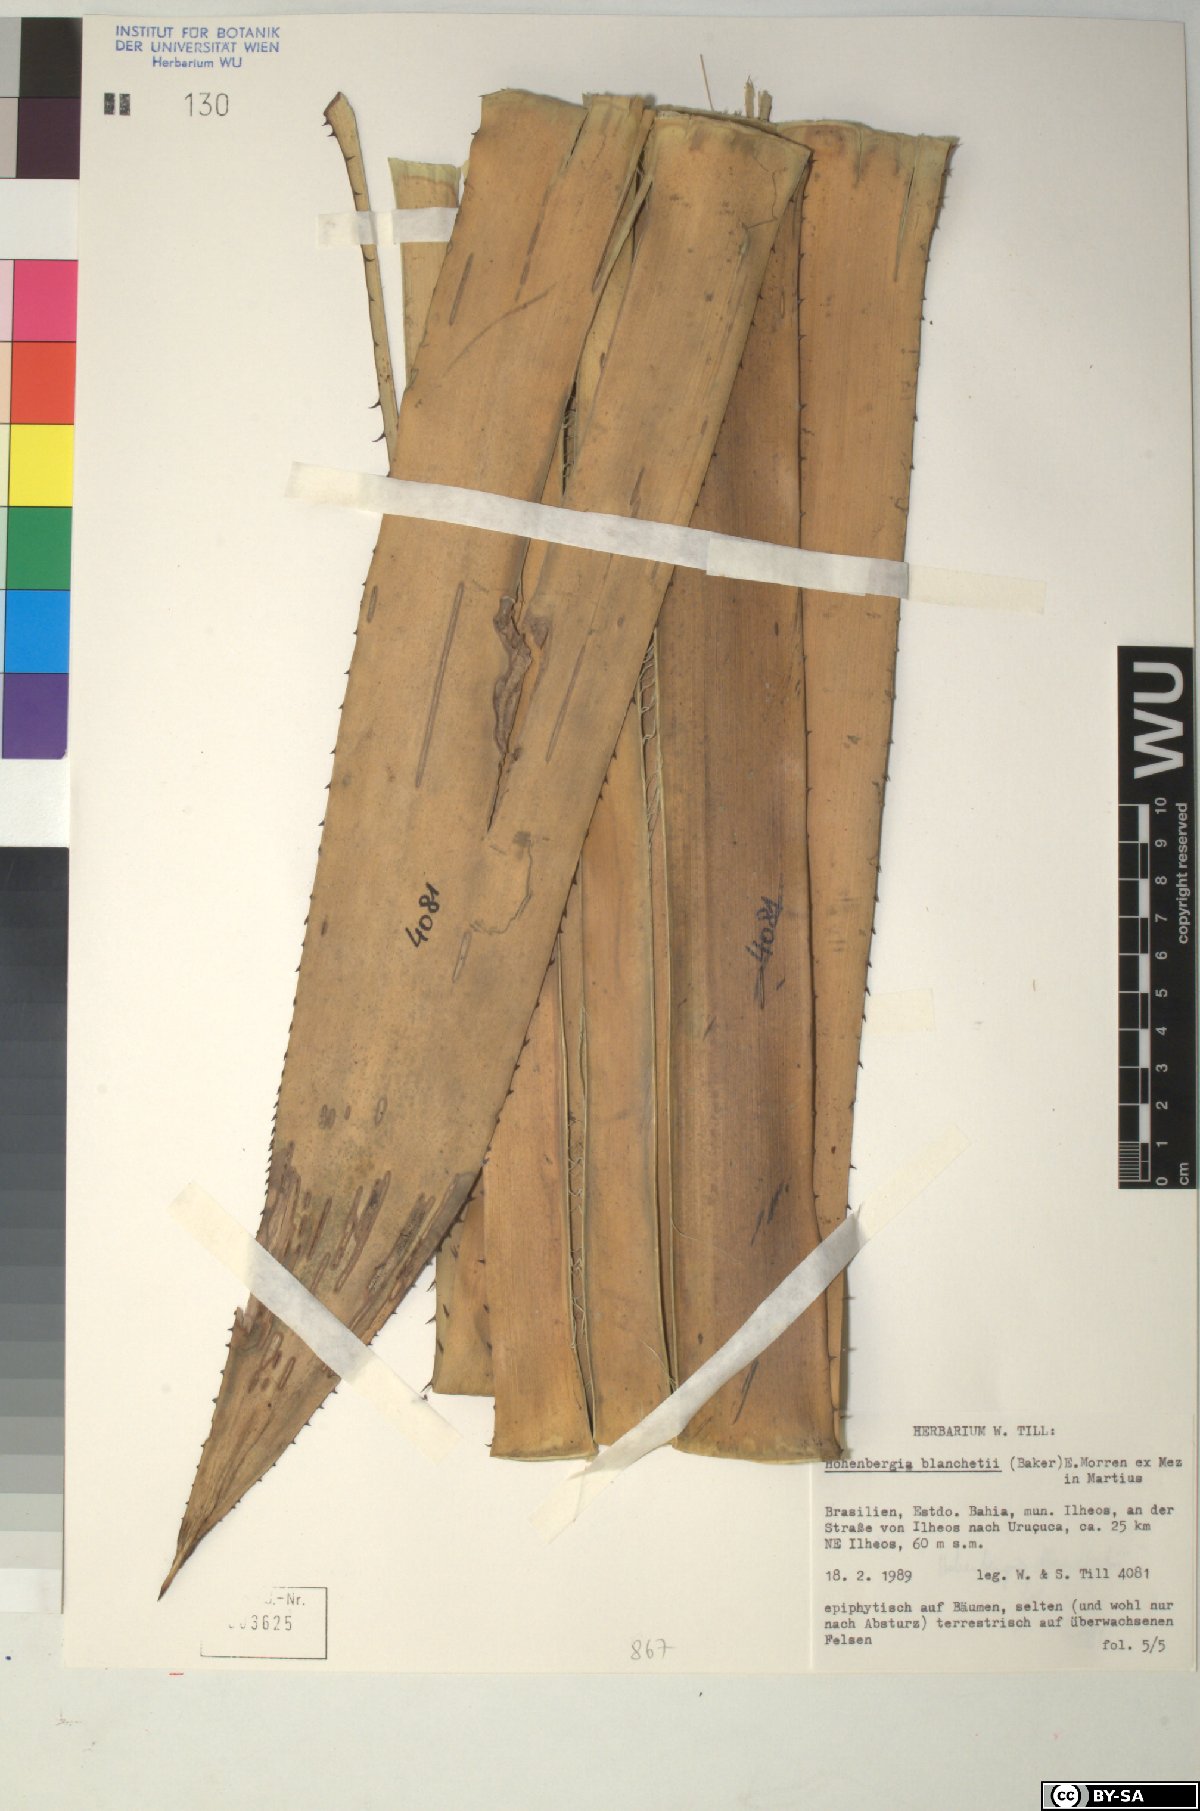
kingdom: Plantae
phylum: Tracheophyta
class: Liliopsida
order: Poales
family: Bromeliaceae
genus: Hohenbergia
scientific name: Hohenbergia blanchetii
